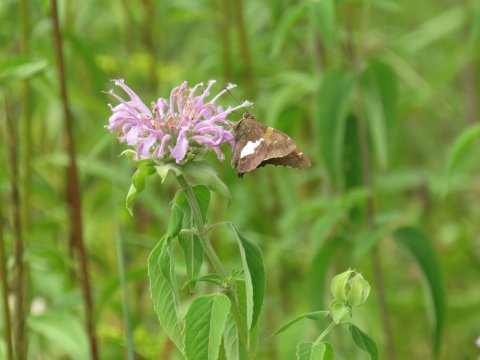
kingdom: Animalia
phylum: Arthropoda
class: Insecta
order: Lepidoptera
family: Hesperiidae
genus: Epargyreus
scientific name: Epargyreus clarus
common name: Silver-spotted Skipper
